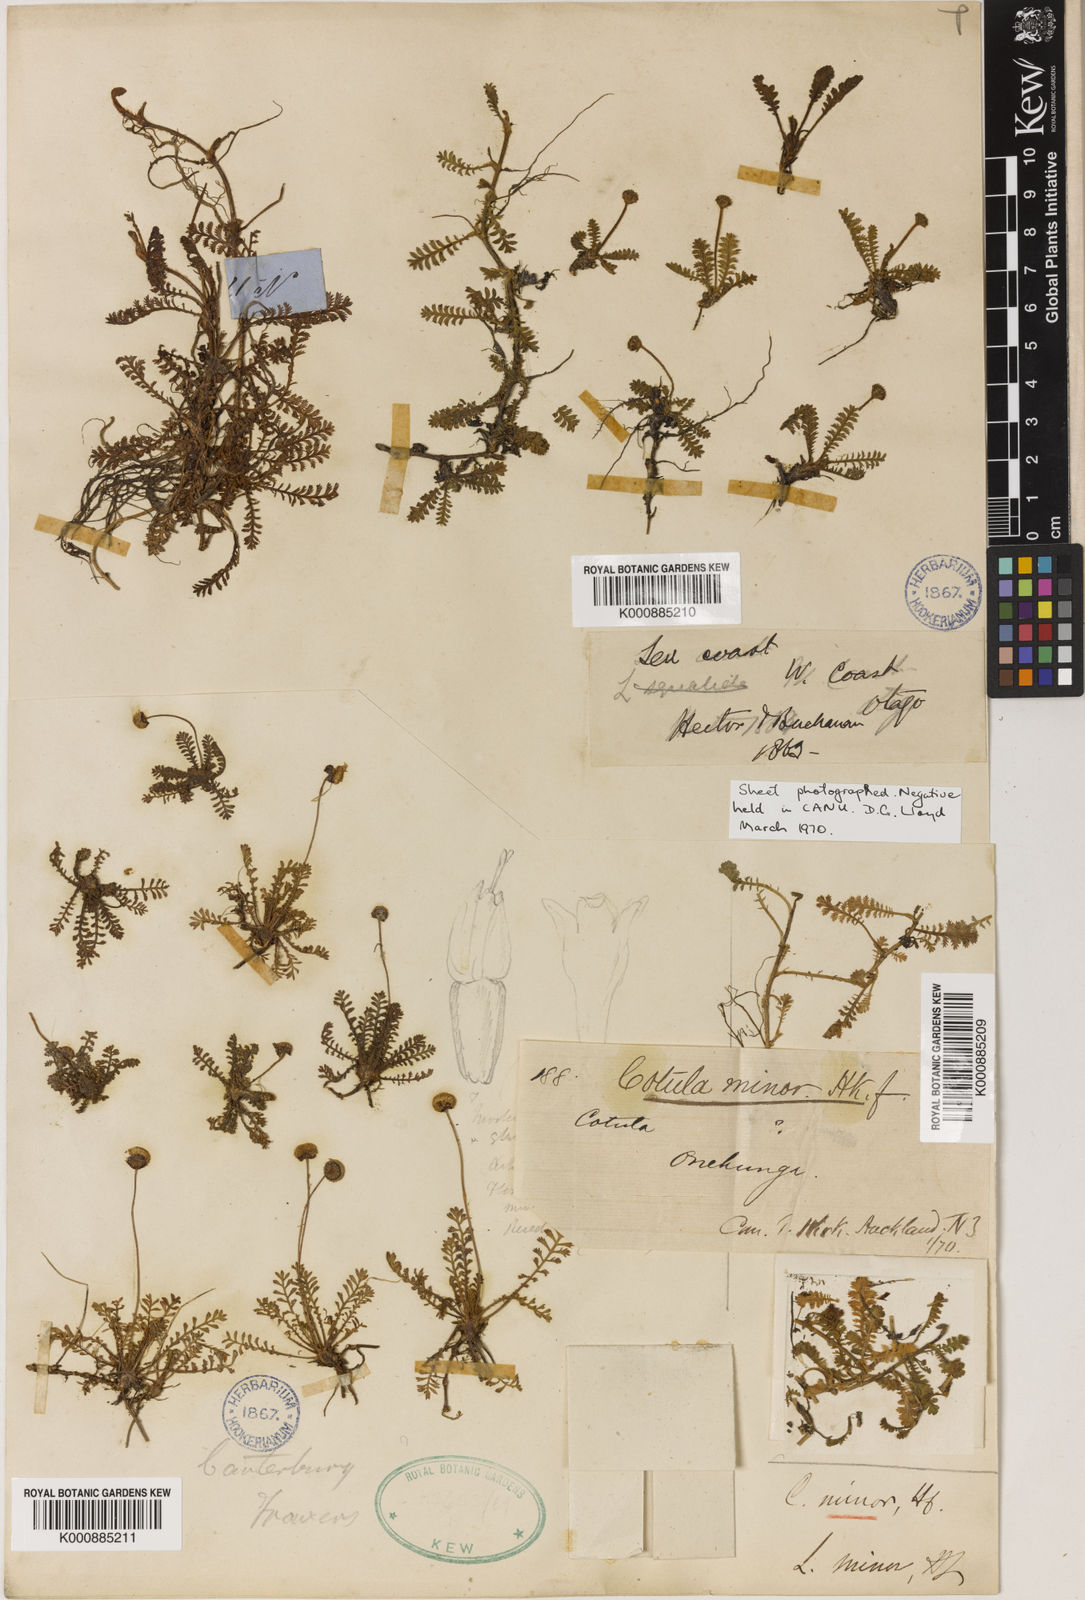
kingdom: Plantae
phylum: Tracheophyta
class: Magnoliopsida
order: Asterales
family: Asteraceae
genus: Leptinella
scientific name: Leptinella minor
